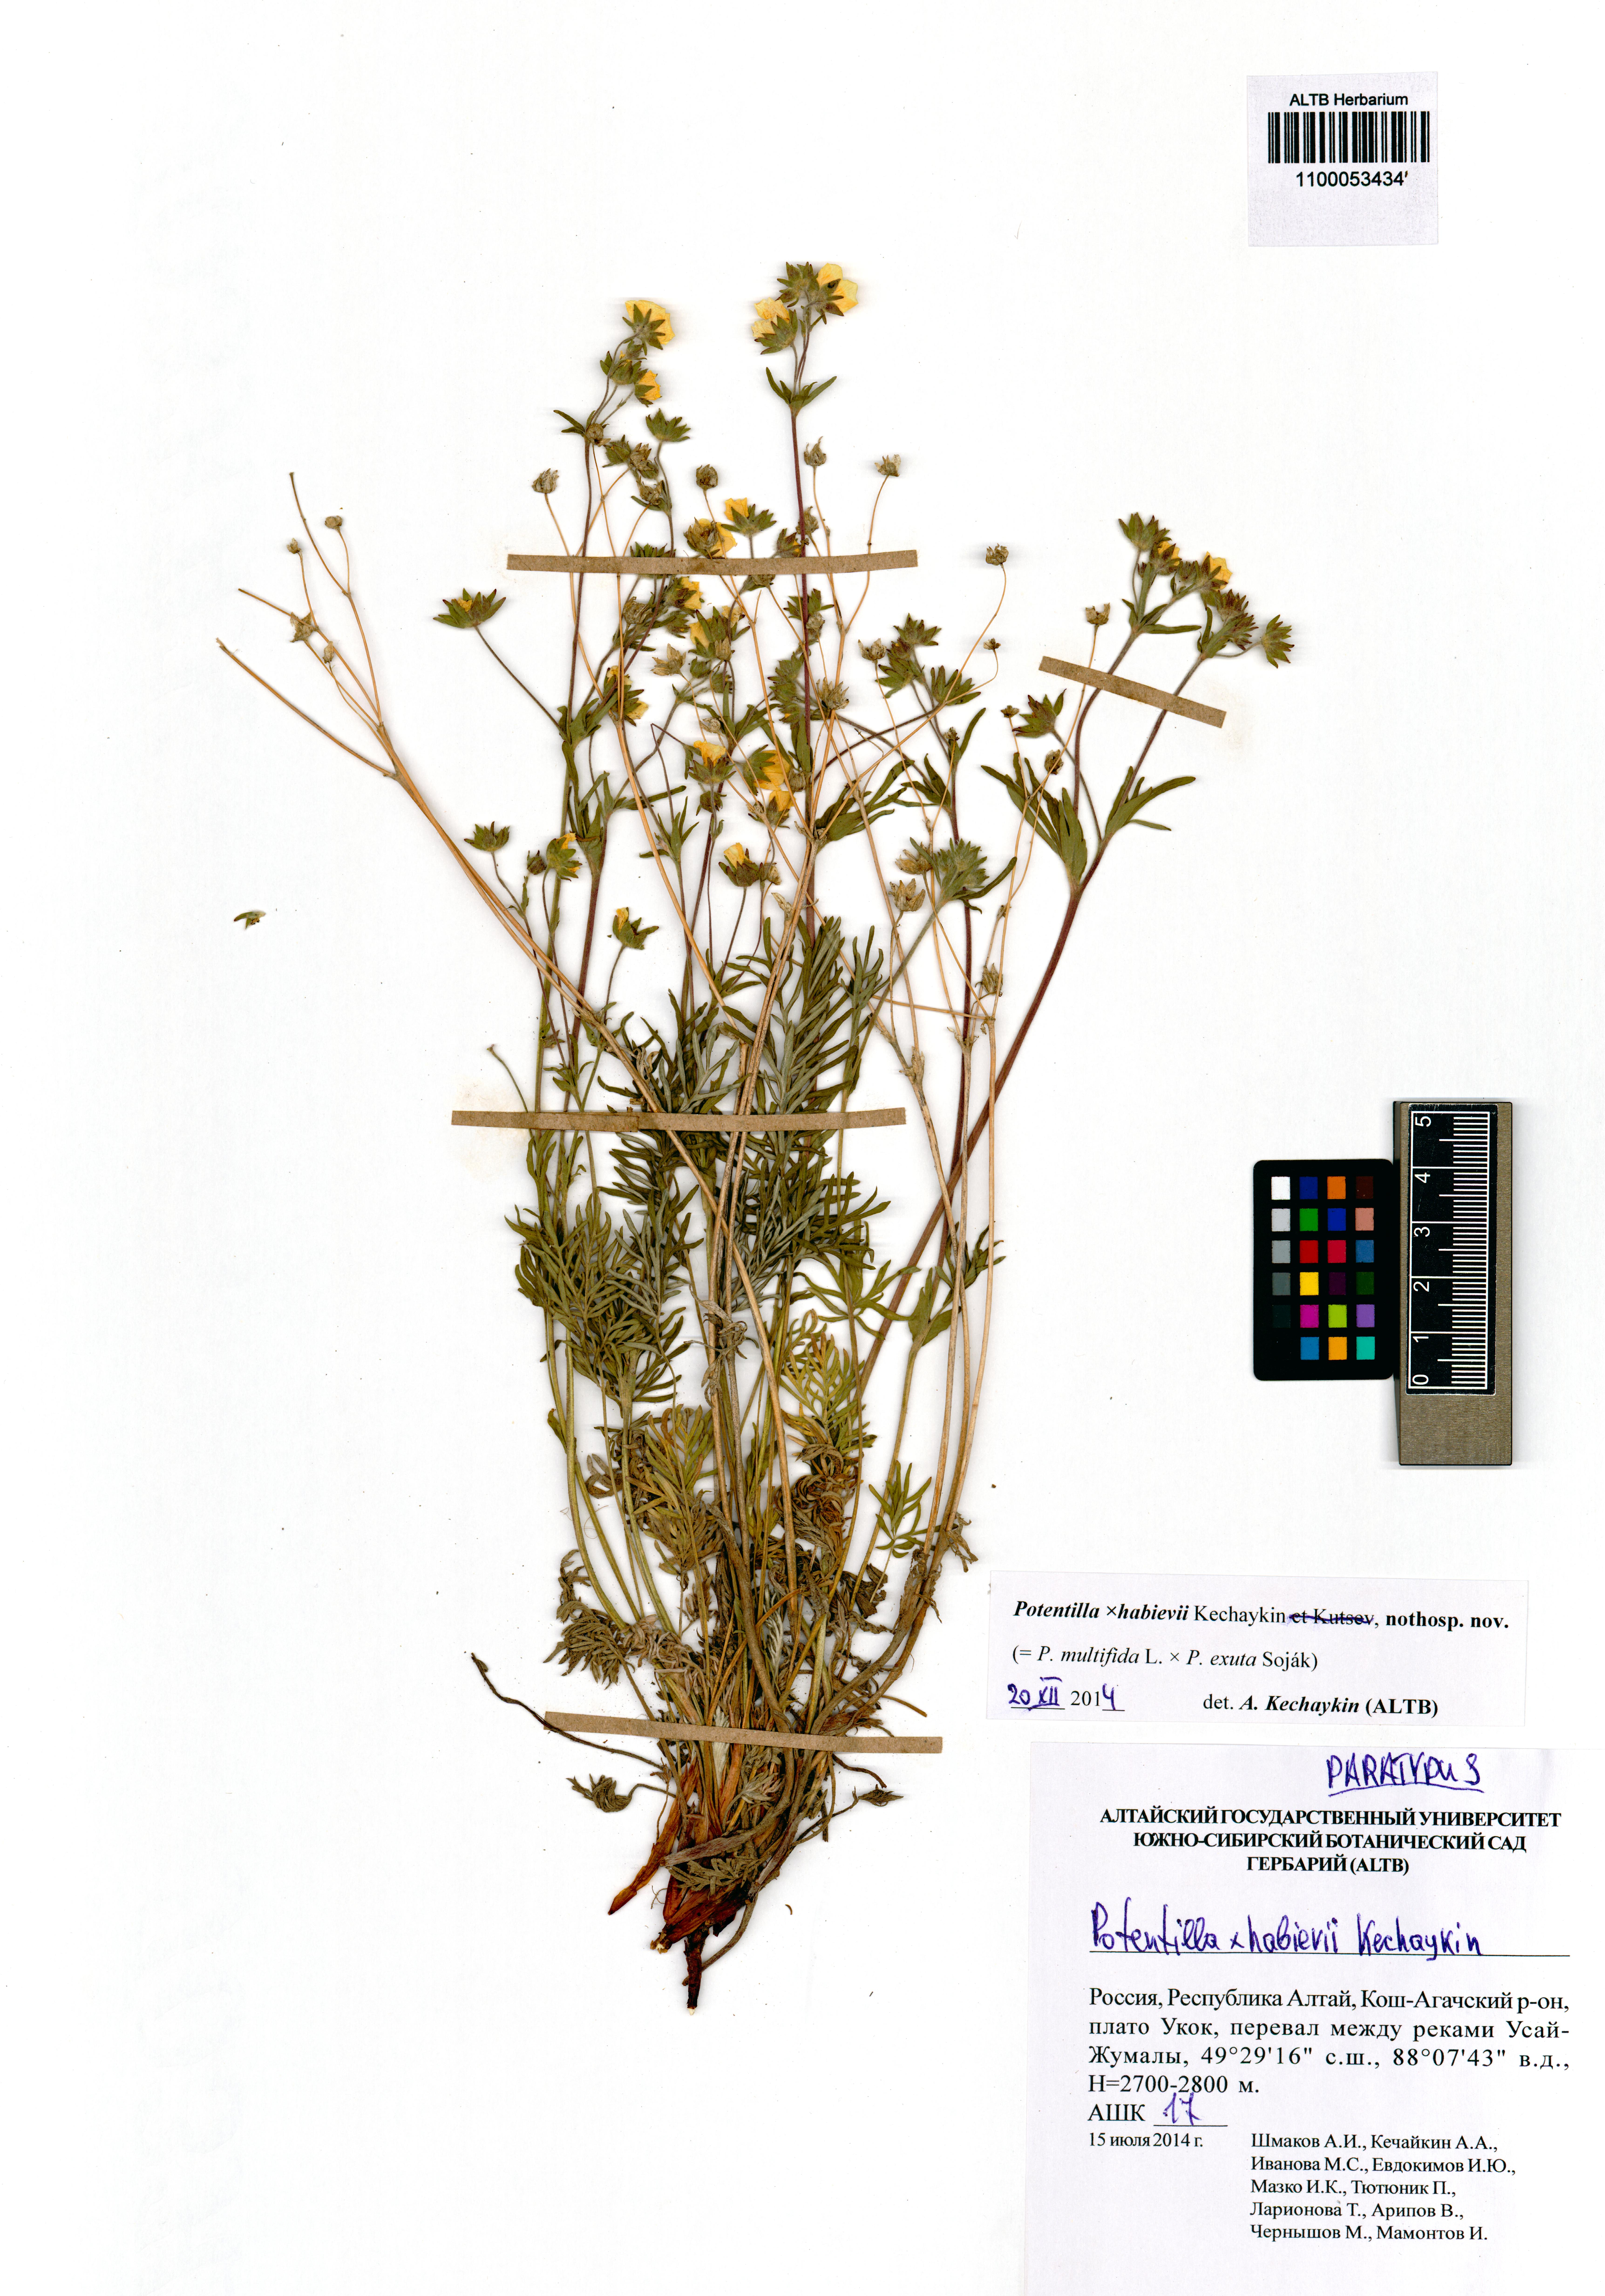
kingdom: Plantae
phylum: Tracheophyta
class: Magnoliopsida
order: Rosales
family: Rosaceae
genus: Potentilla
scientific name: Potentilla habievii
